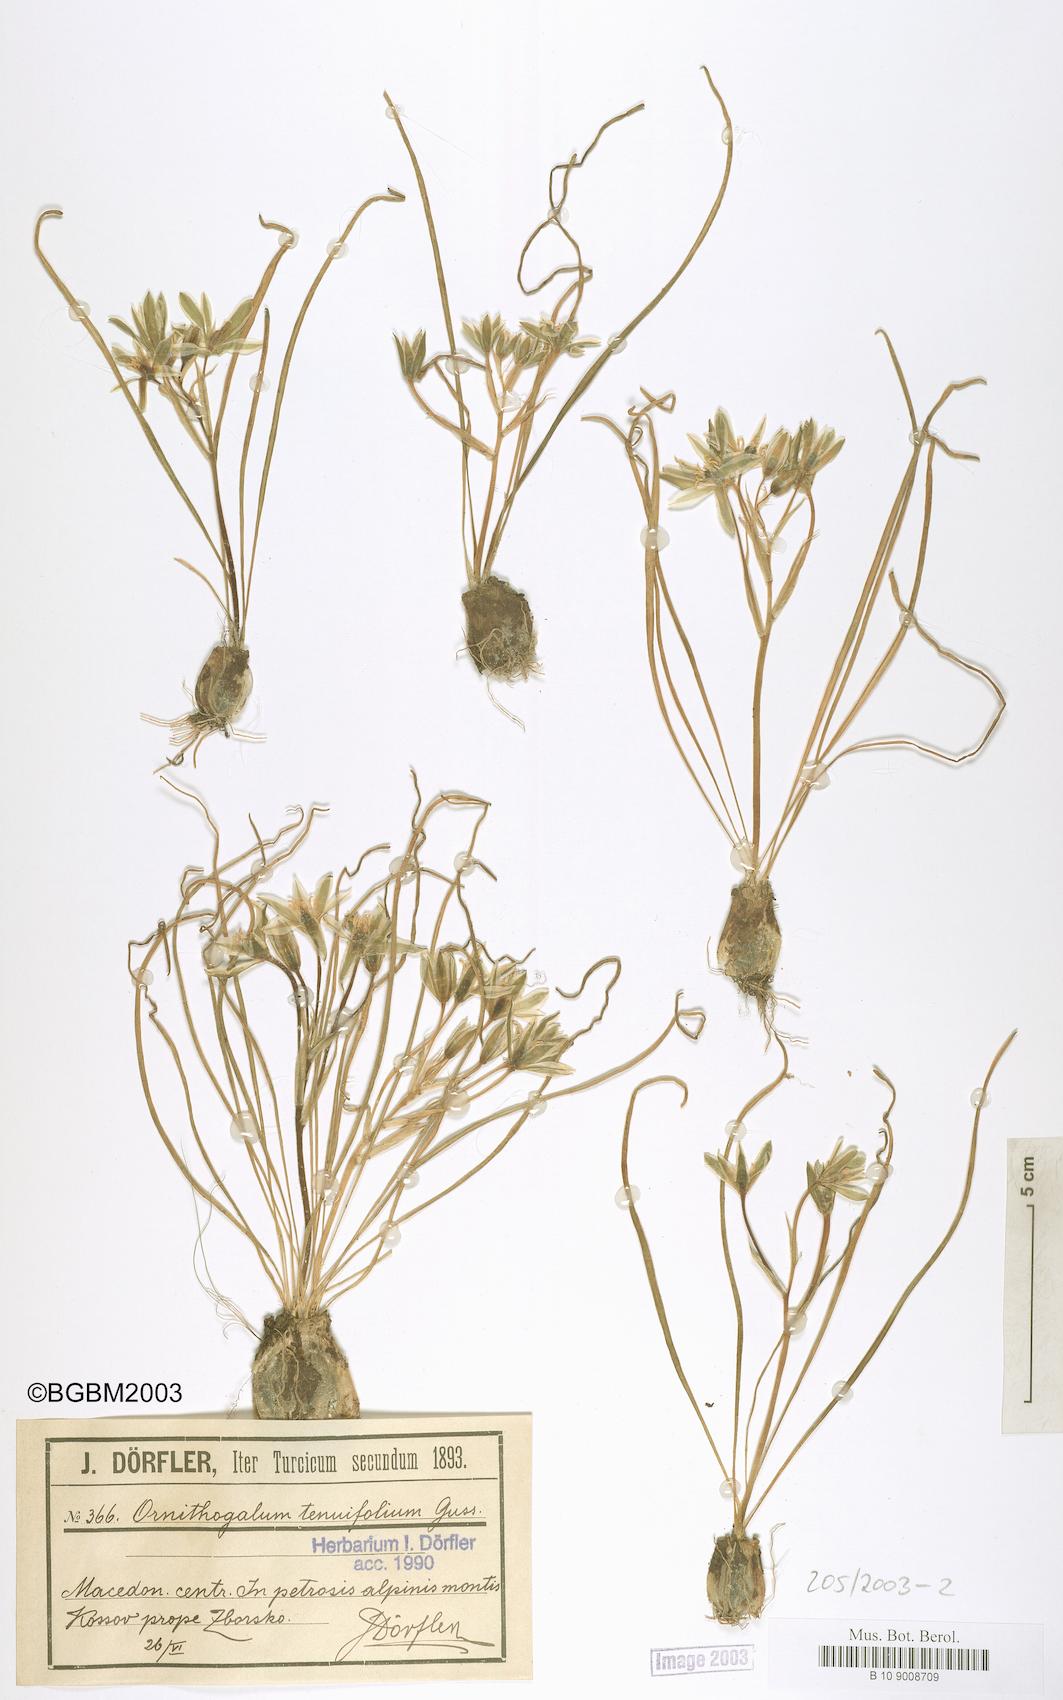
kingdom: Plantae
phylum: Tracheophyta
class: Liliopsida
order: Asparagales
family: Asparagaceae
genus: Ornithogalum
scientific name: Ornithogalum tenuifolium
